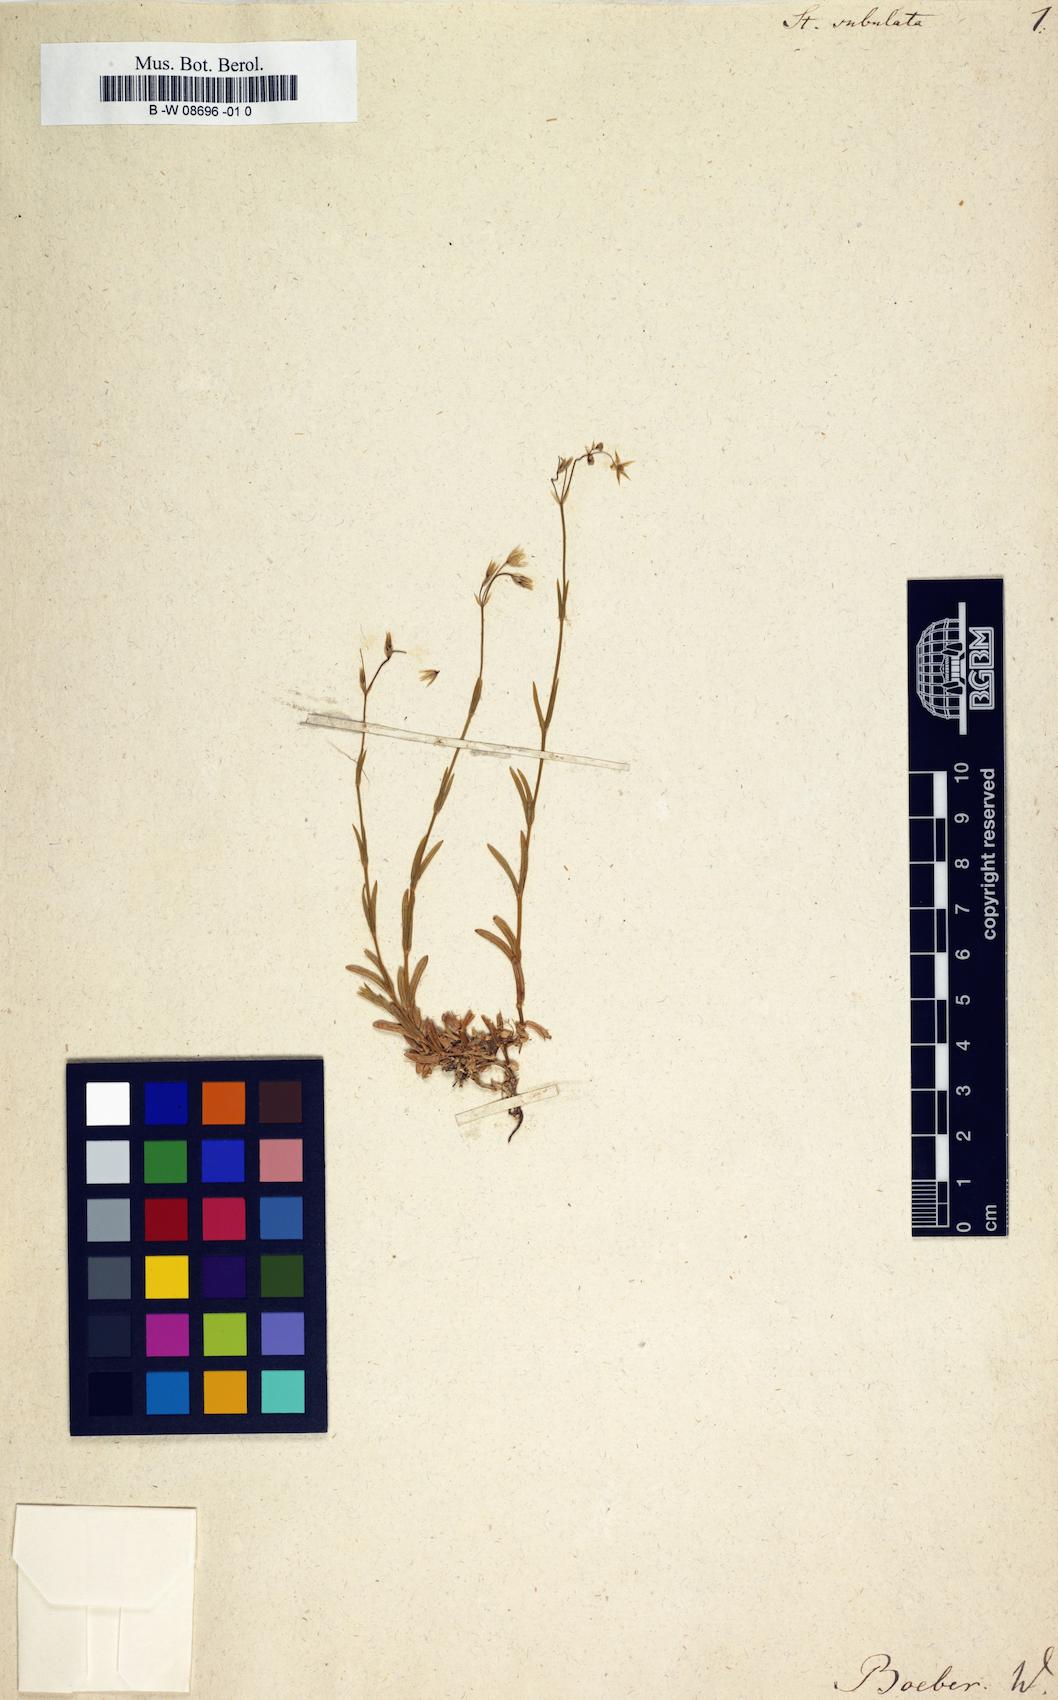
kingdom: Plantae
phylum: Tracheophyta
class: Magnoliopsida
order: Caryophyllales
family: Caryophyllaceae
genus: Stellaria
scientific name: Stellaria graminea
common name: Grass-like starwort
